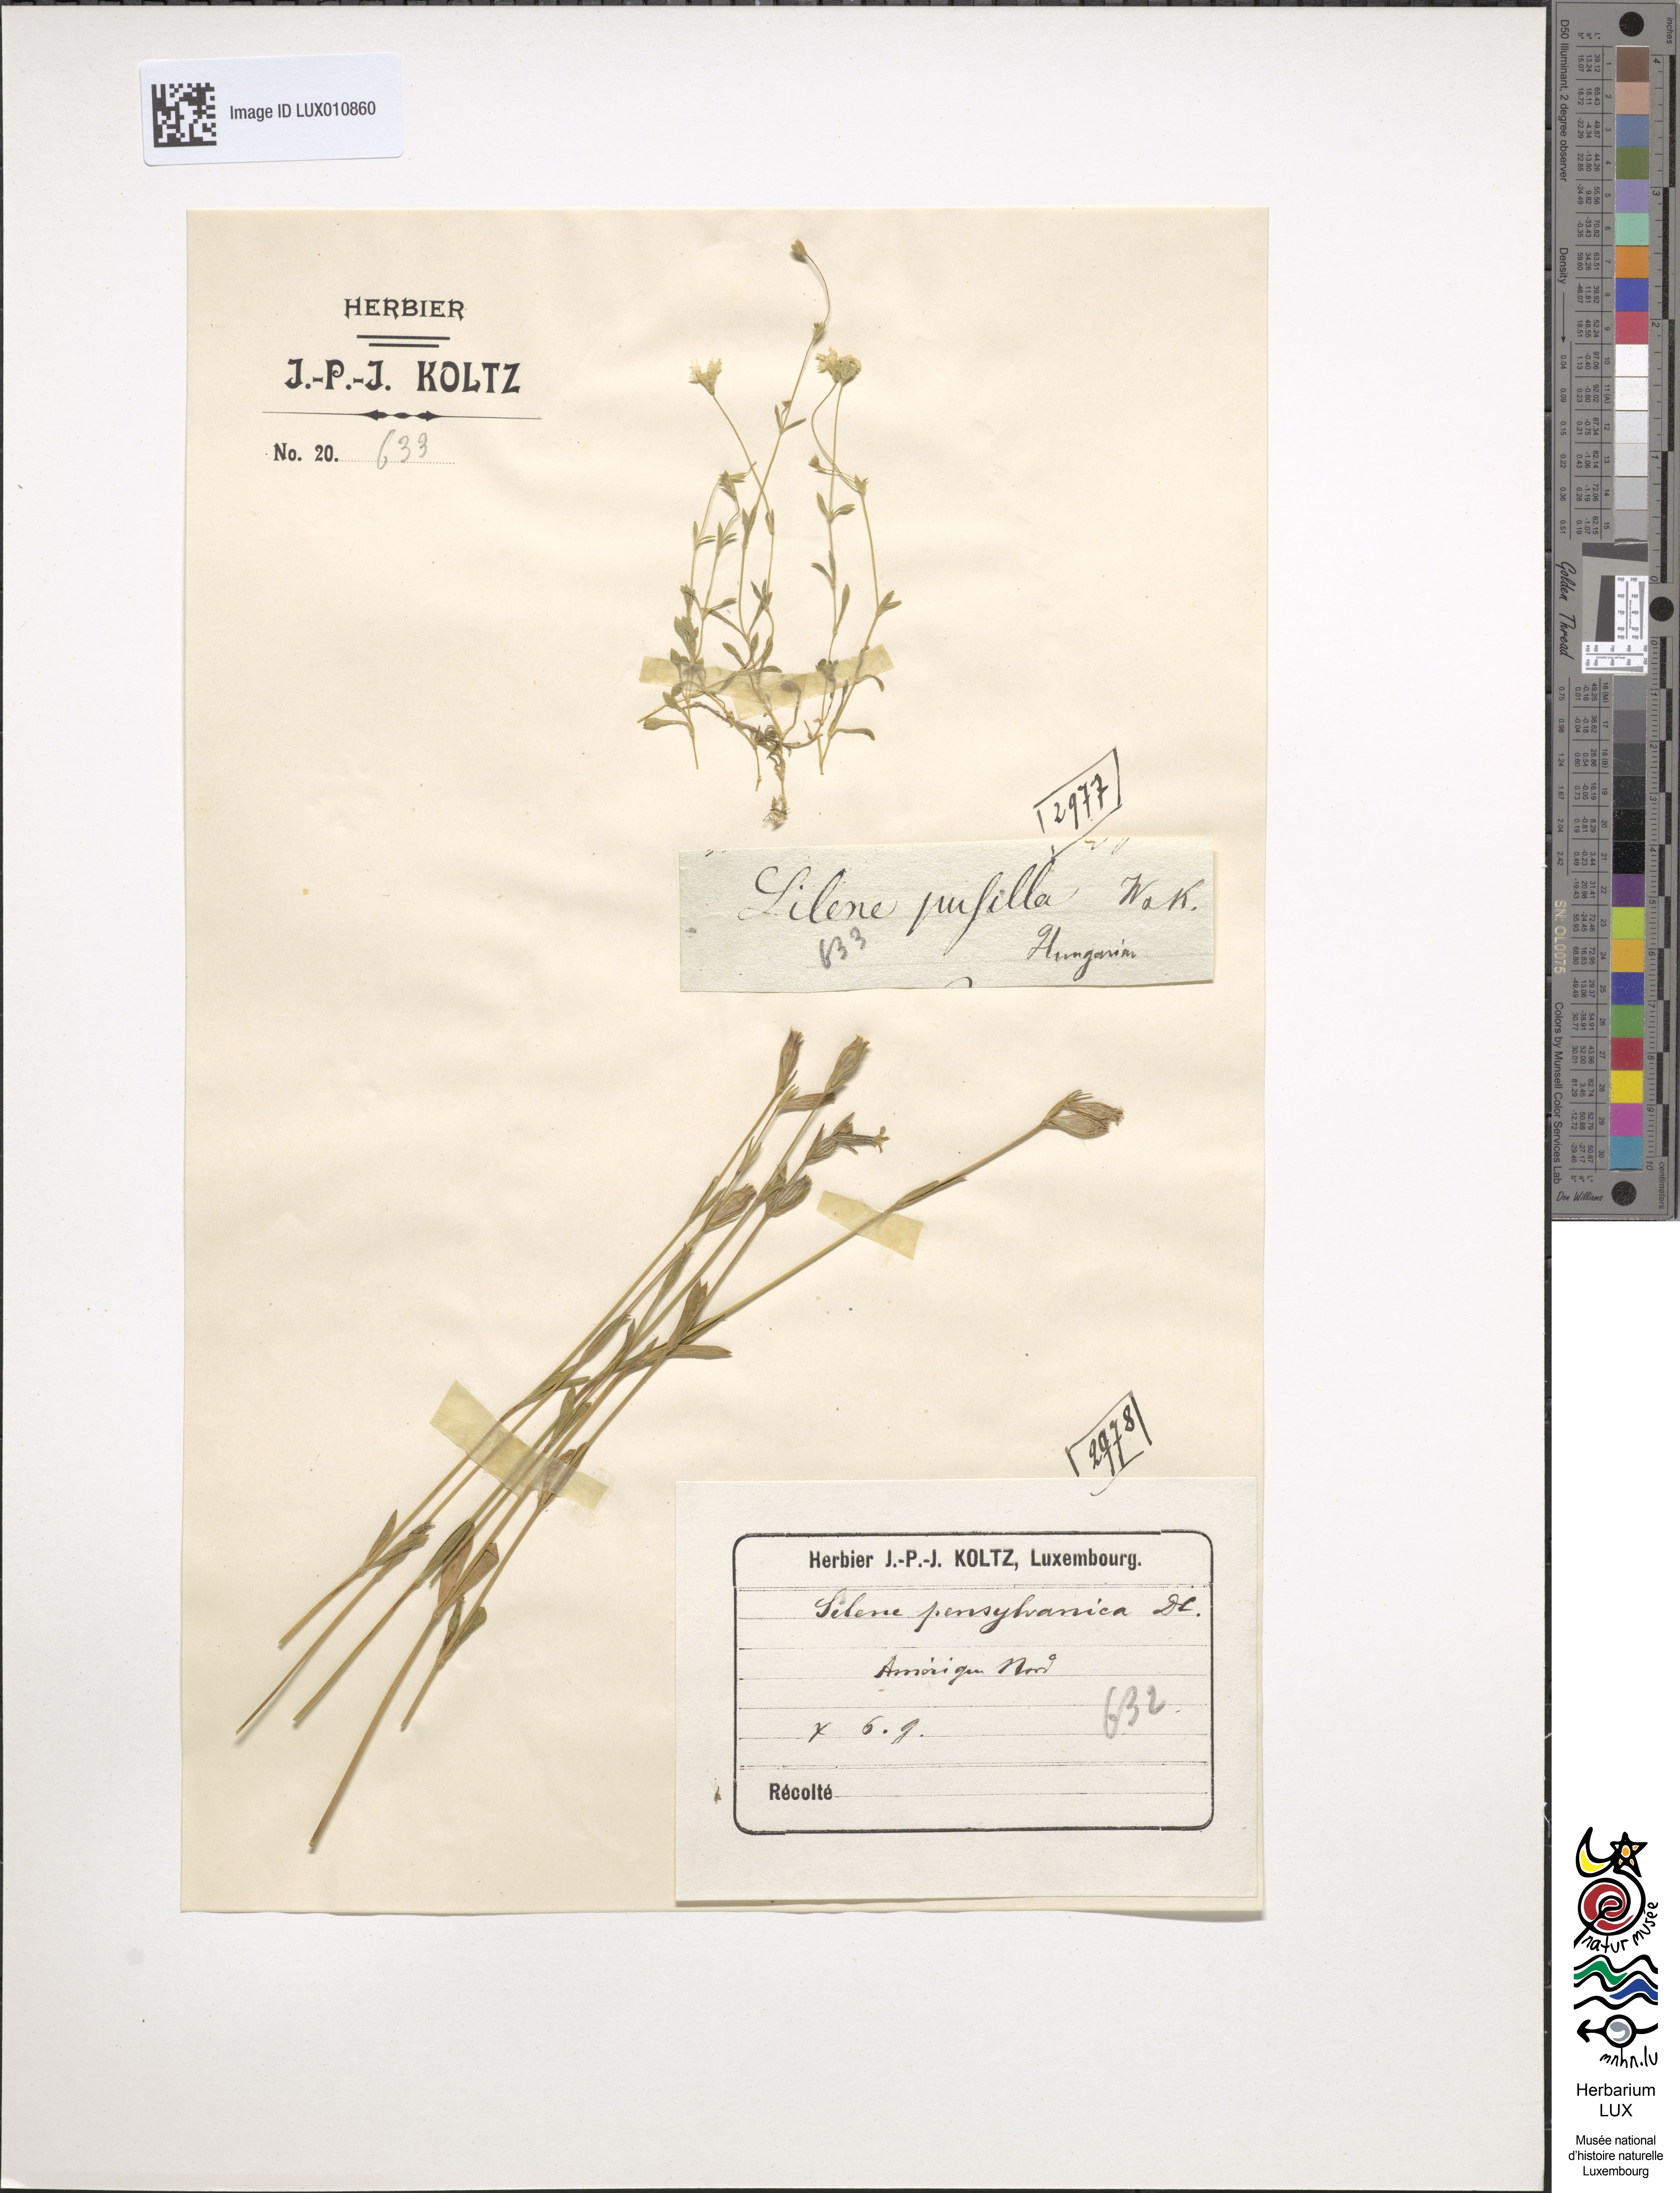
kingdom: Plantae
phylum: Tracheophyta
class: Magnoliopsida
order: Caryophyllales
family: Caryophyllaceae
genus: Heliosperma
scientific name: Heliosperma pusillum
